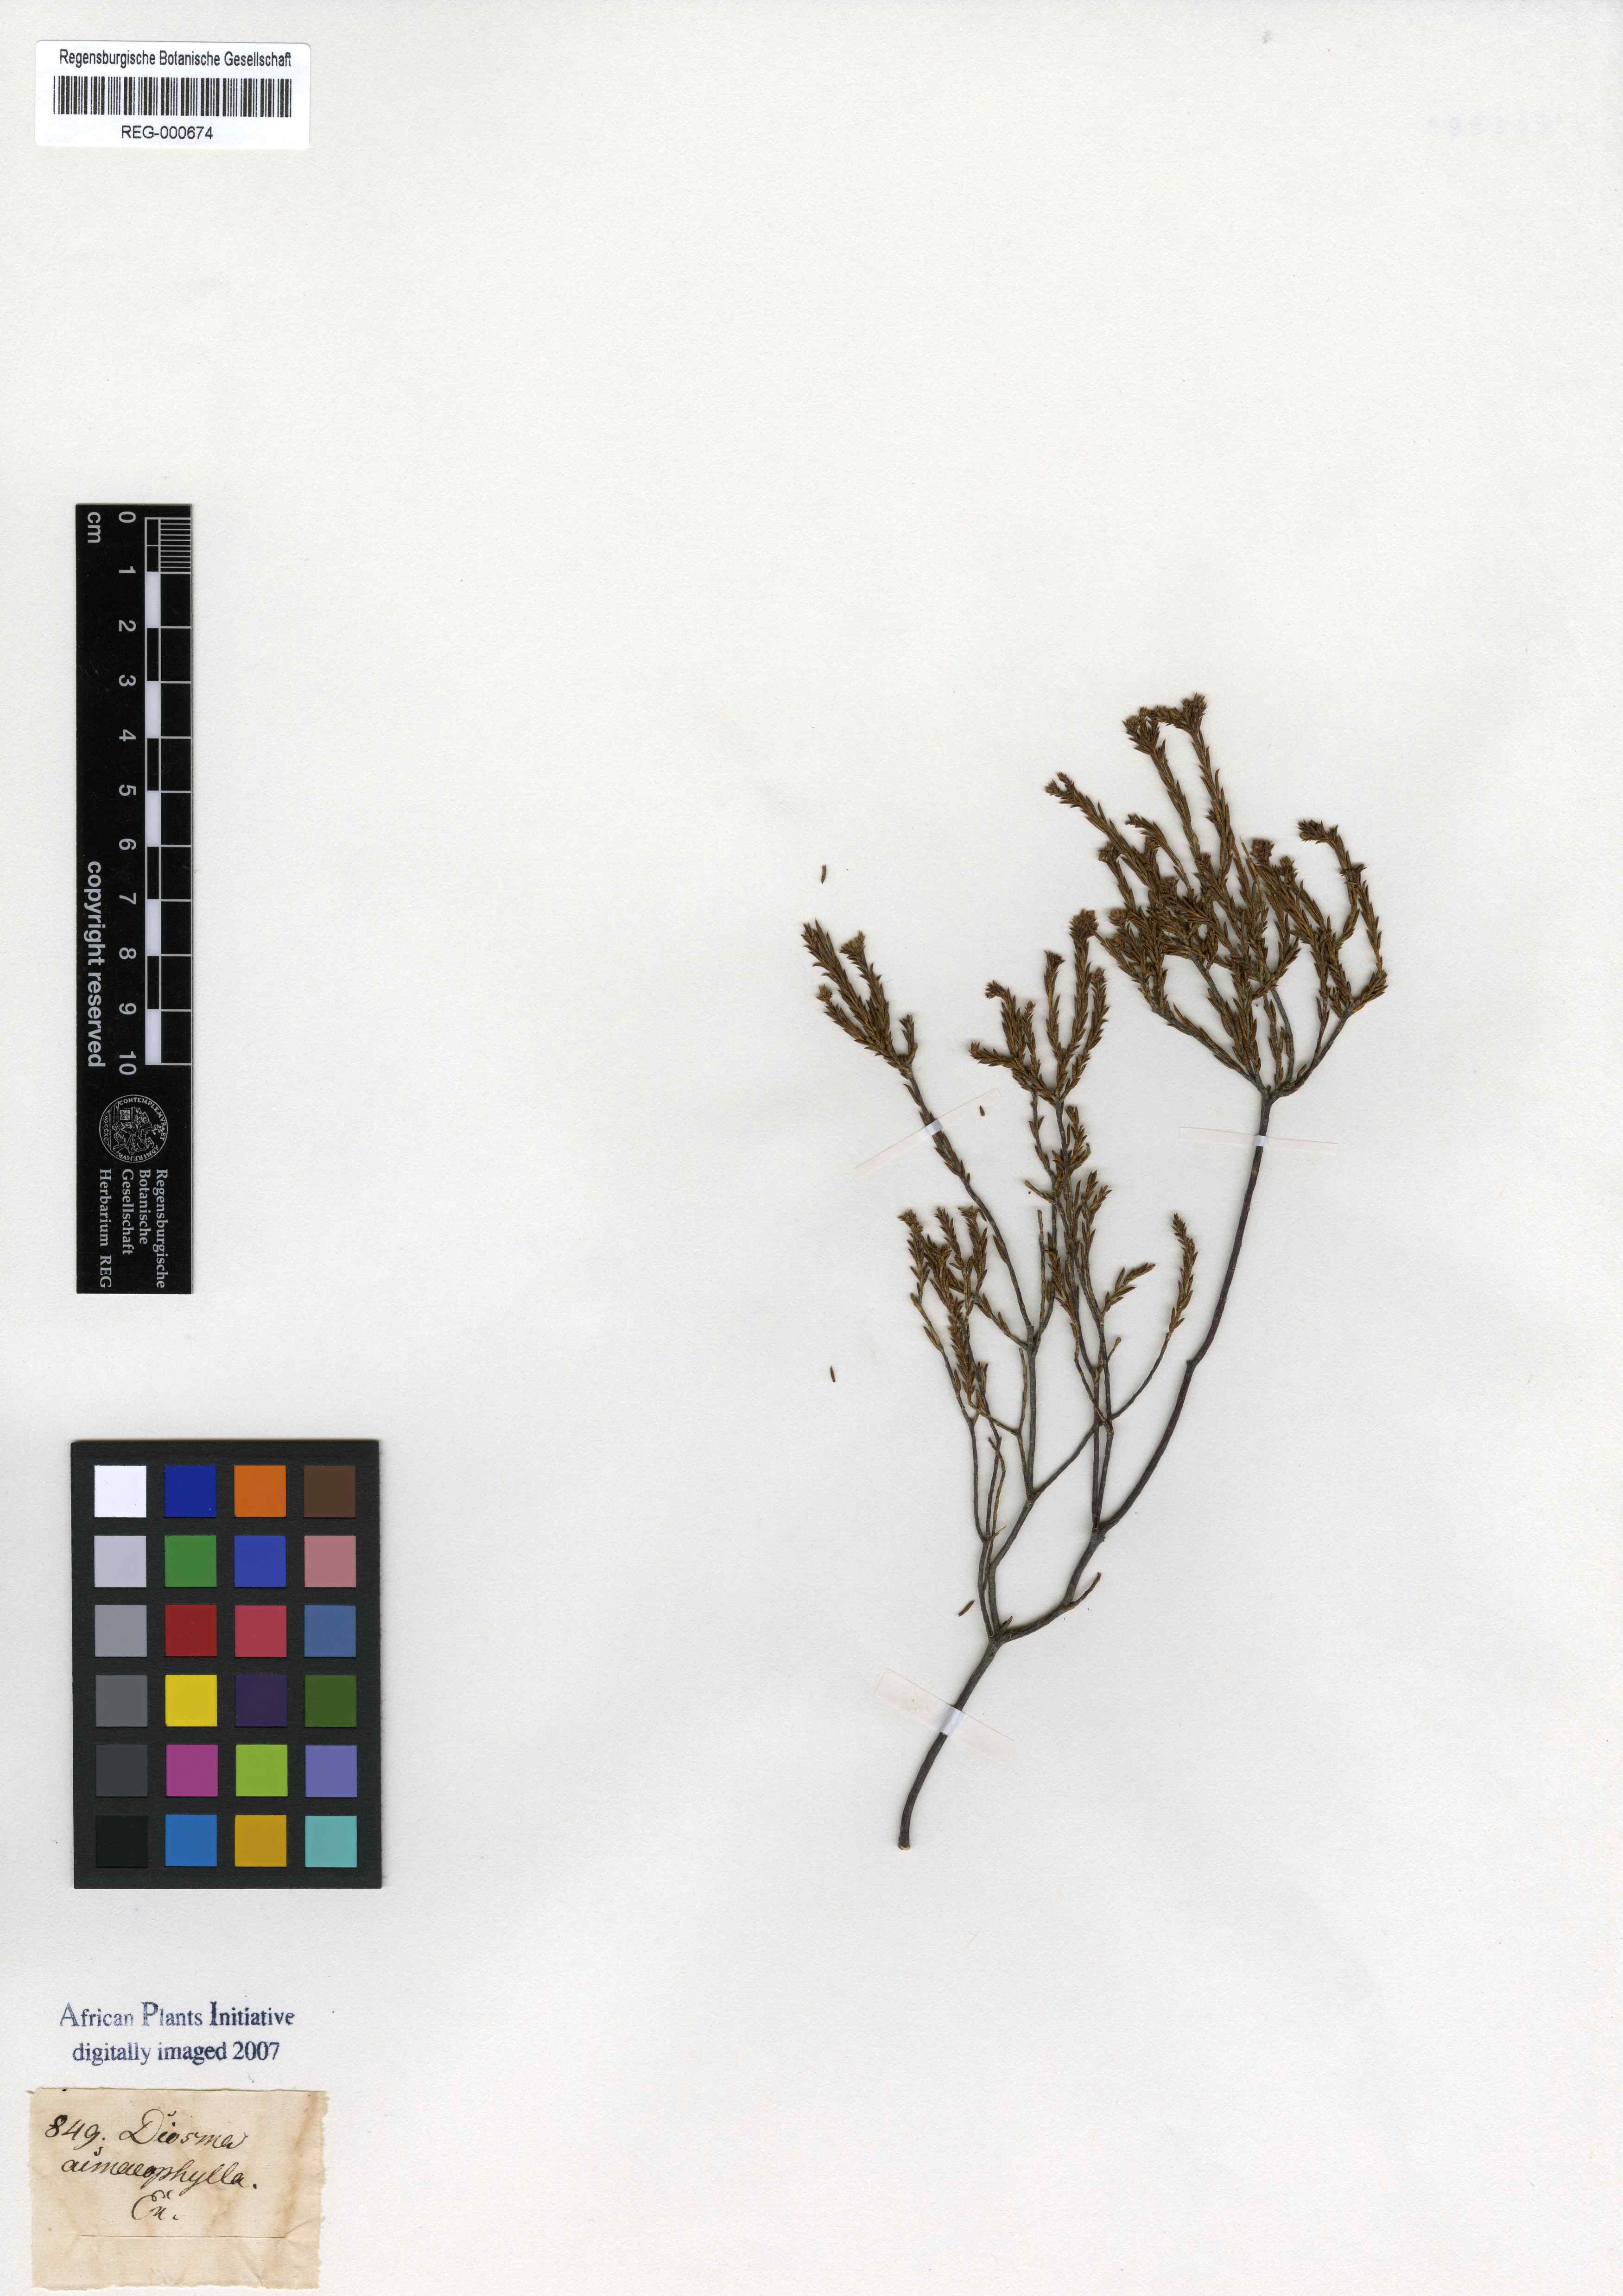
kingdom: Plantae
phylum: Tracheophyta
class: Magnoliopsida
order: Sapindales
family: Rutaceae
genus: Diosma
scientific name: Diosma acmaephylla
